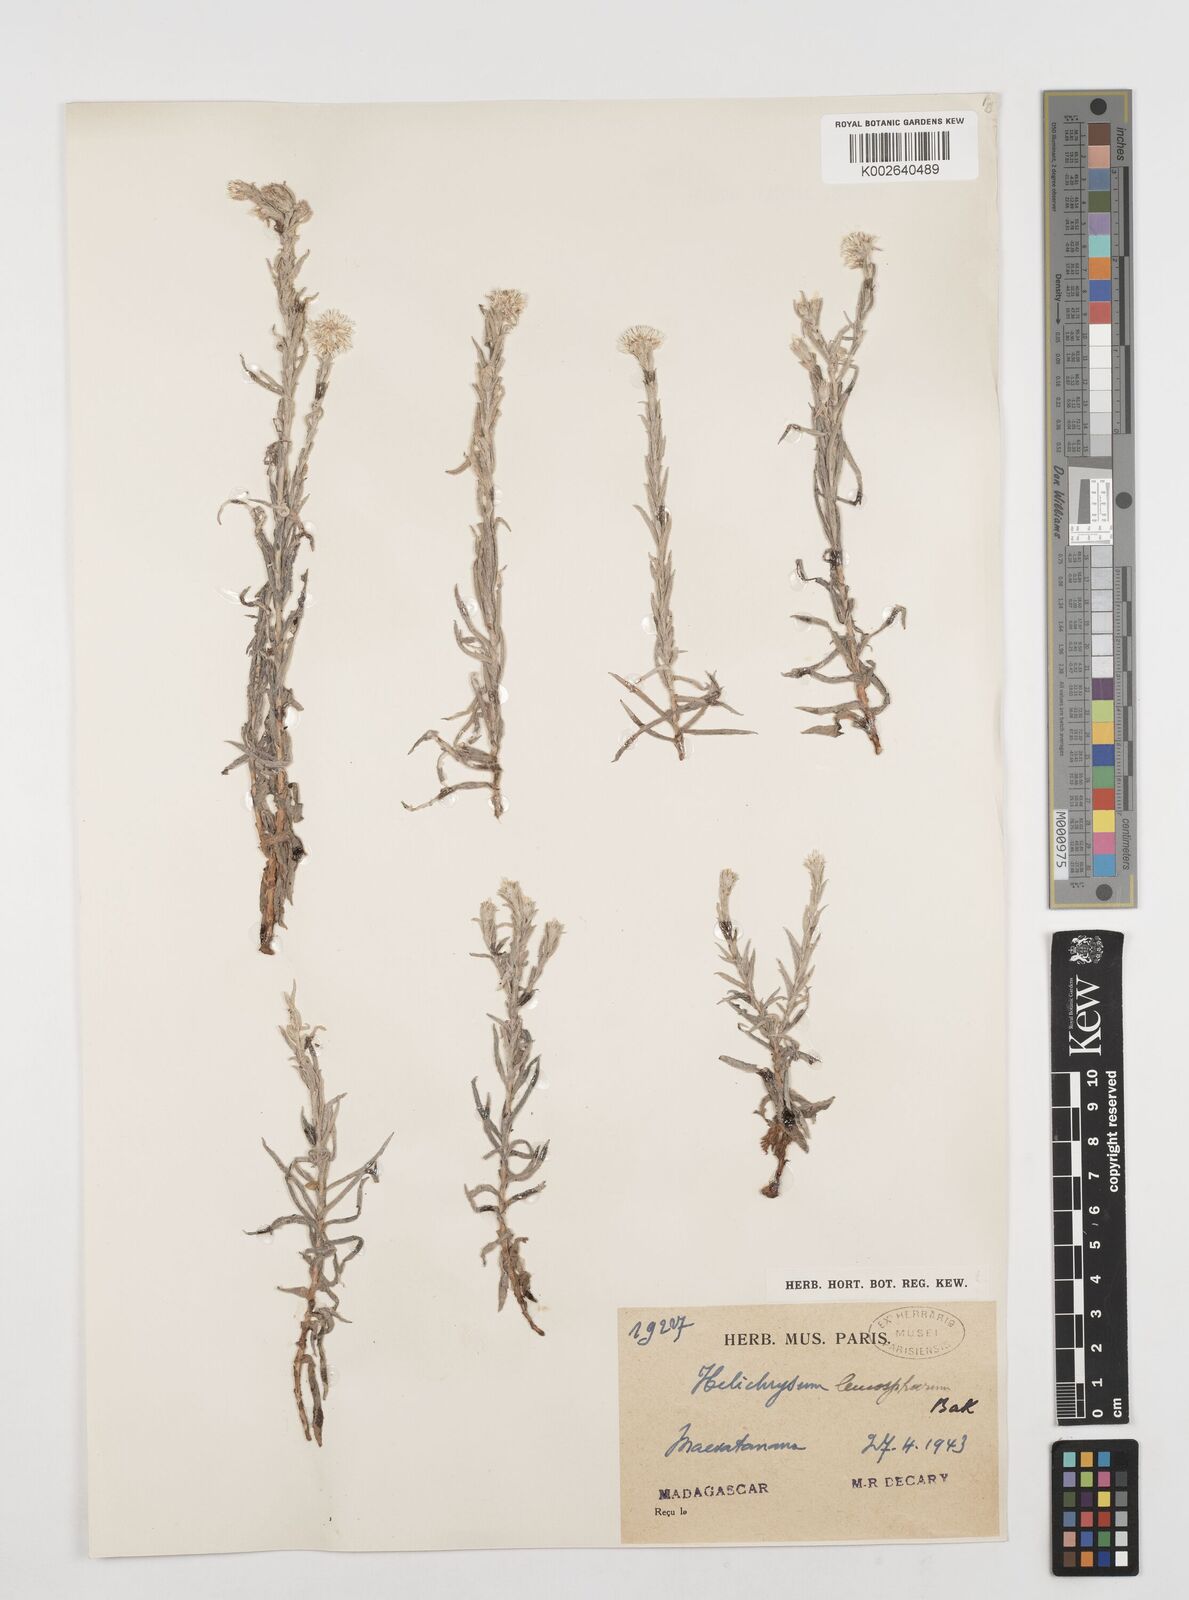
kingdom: Plantae
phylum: Tracheophyta
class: Magnoliopsida
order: Asterales
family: Asteraceae
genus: Helichrysum
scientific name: Helichrysum leucosphaerum
